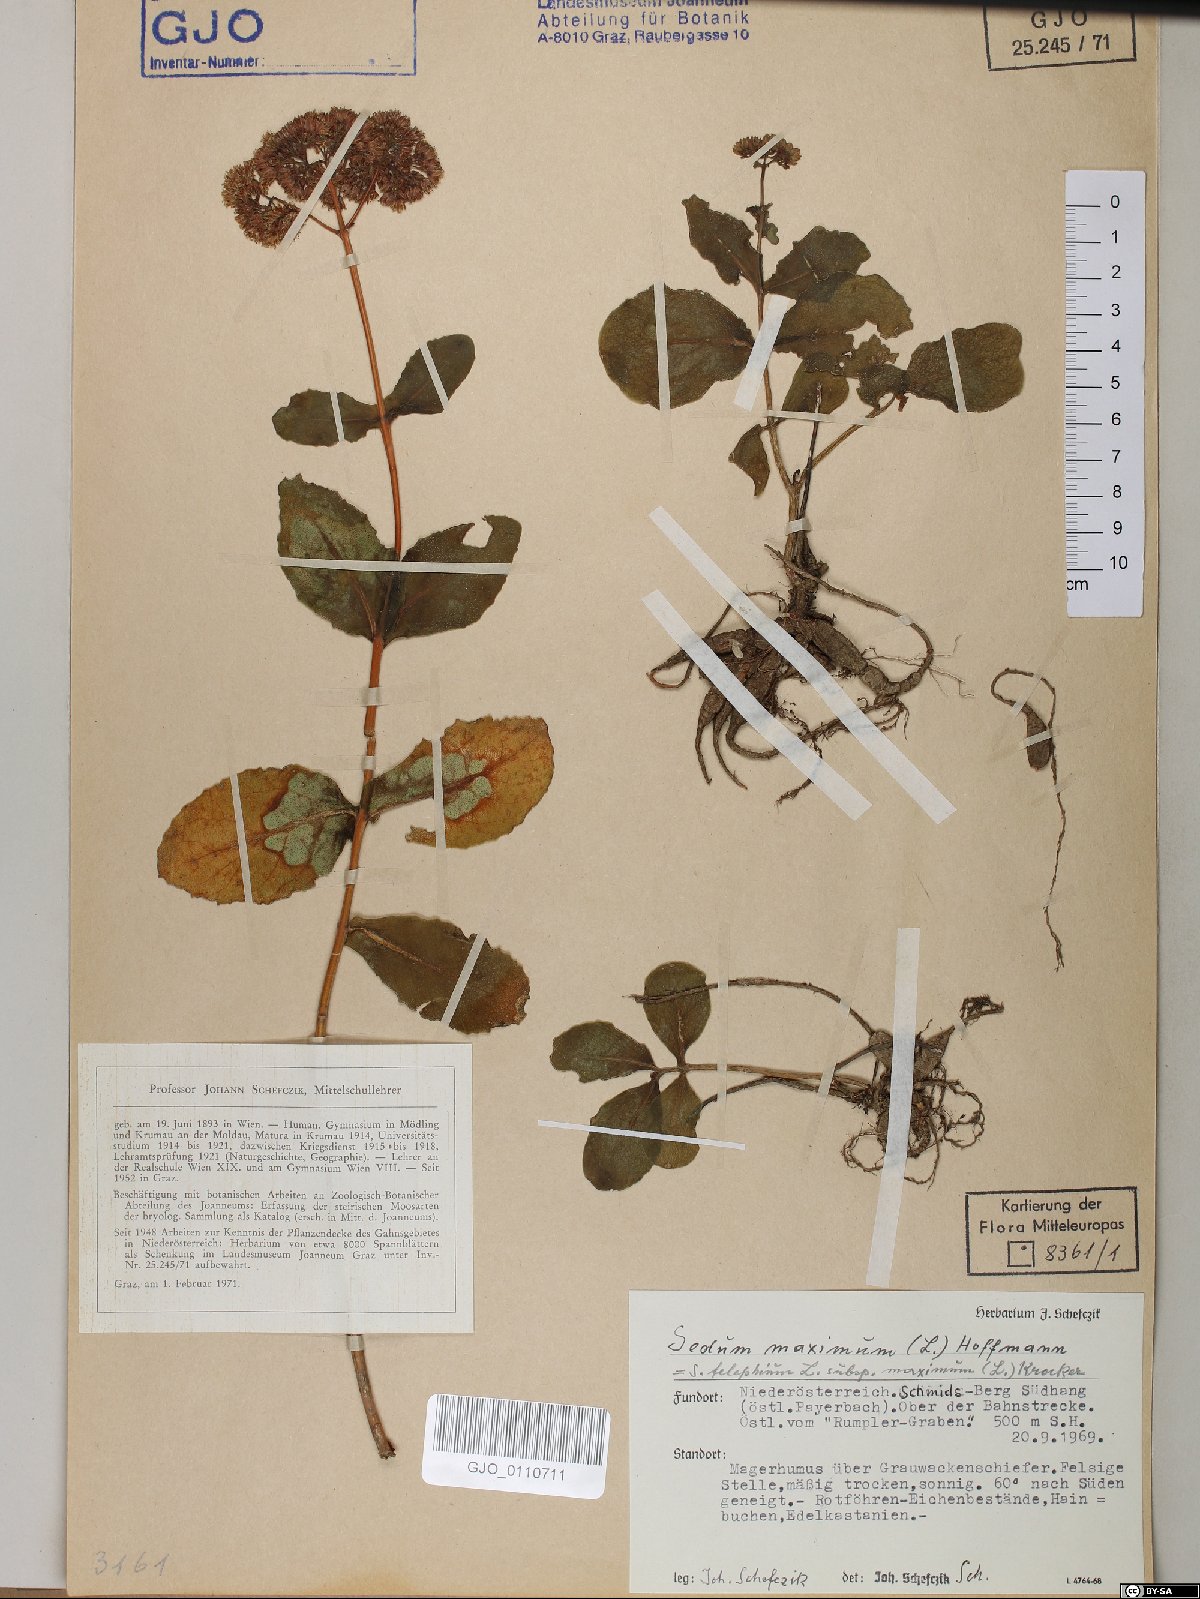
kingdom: Plantae
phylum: Tracheophyta
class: Magnoliopsida
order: Saxifragales
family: Crassulaceae
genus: Hylotelephium
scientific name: Hylotelephium maximum
